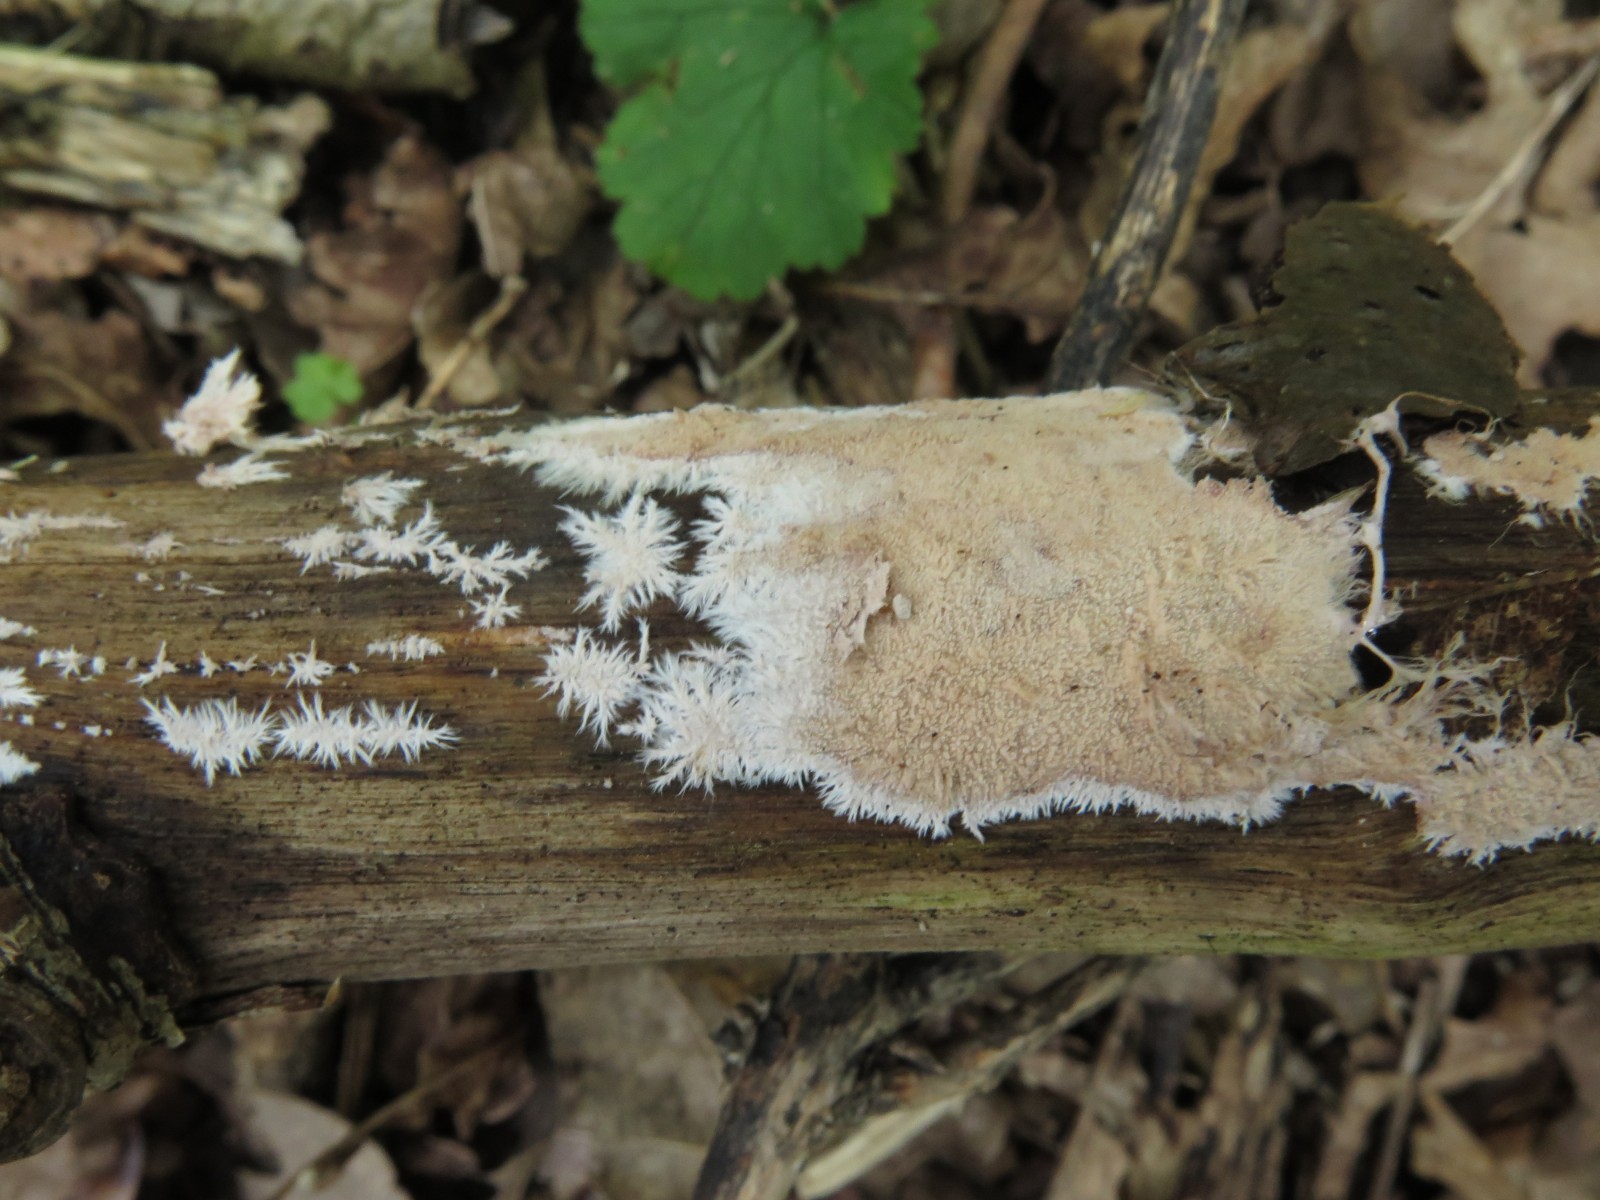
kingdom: Fungi
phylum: Basidiomycota
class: Agaricomycetes
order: Polyporales
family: Steccherinaceae
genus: Steccherinum
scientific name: Steccherinum fimbriatum
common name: trådet skønpig
